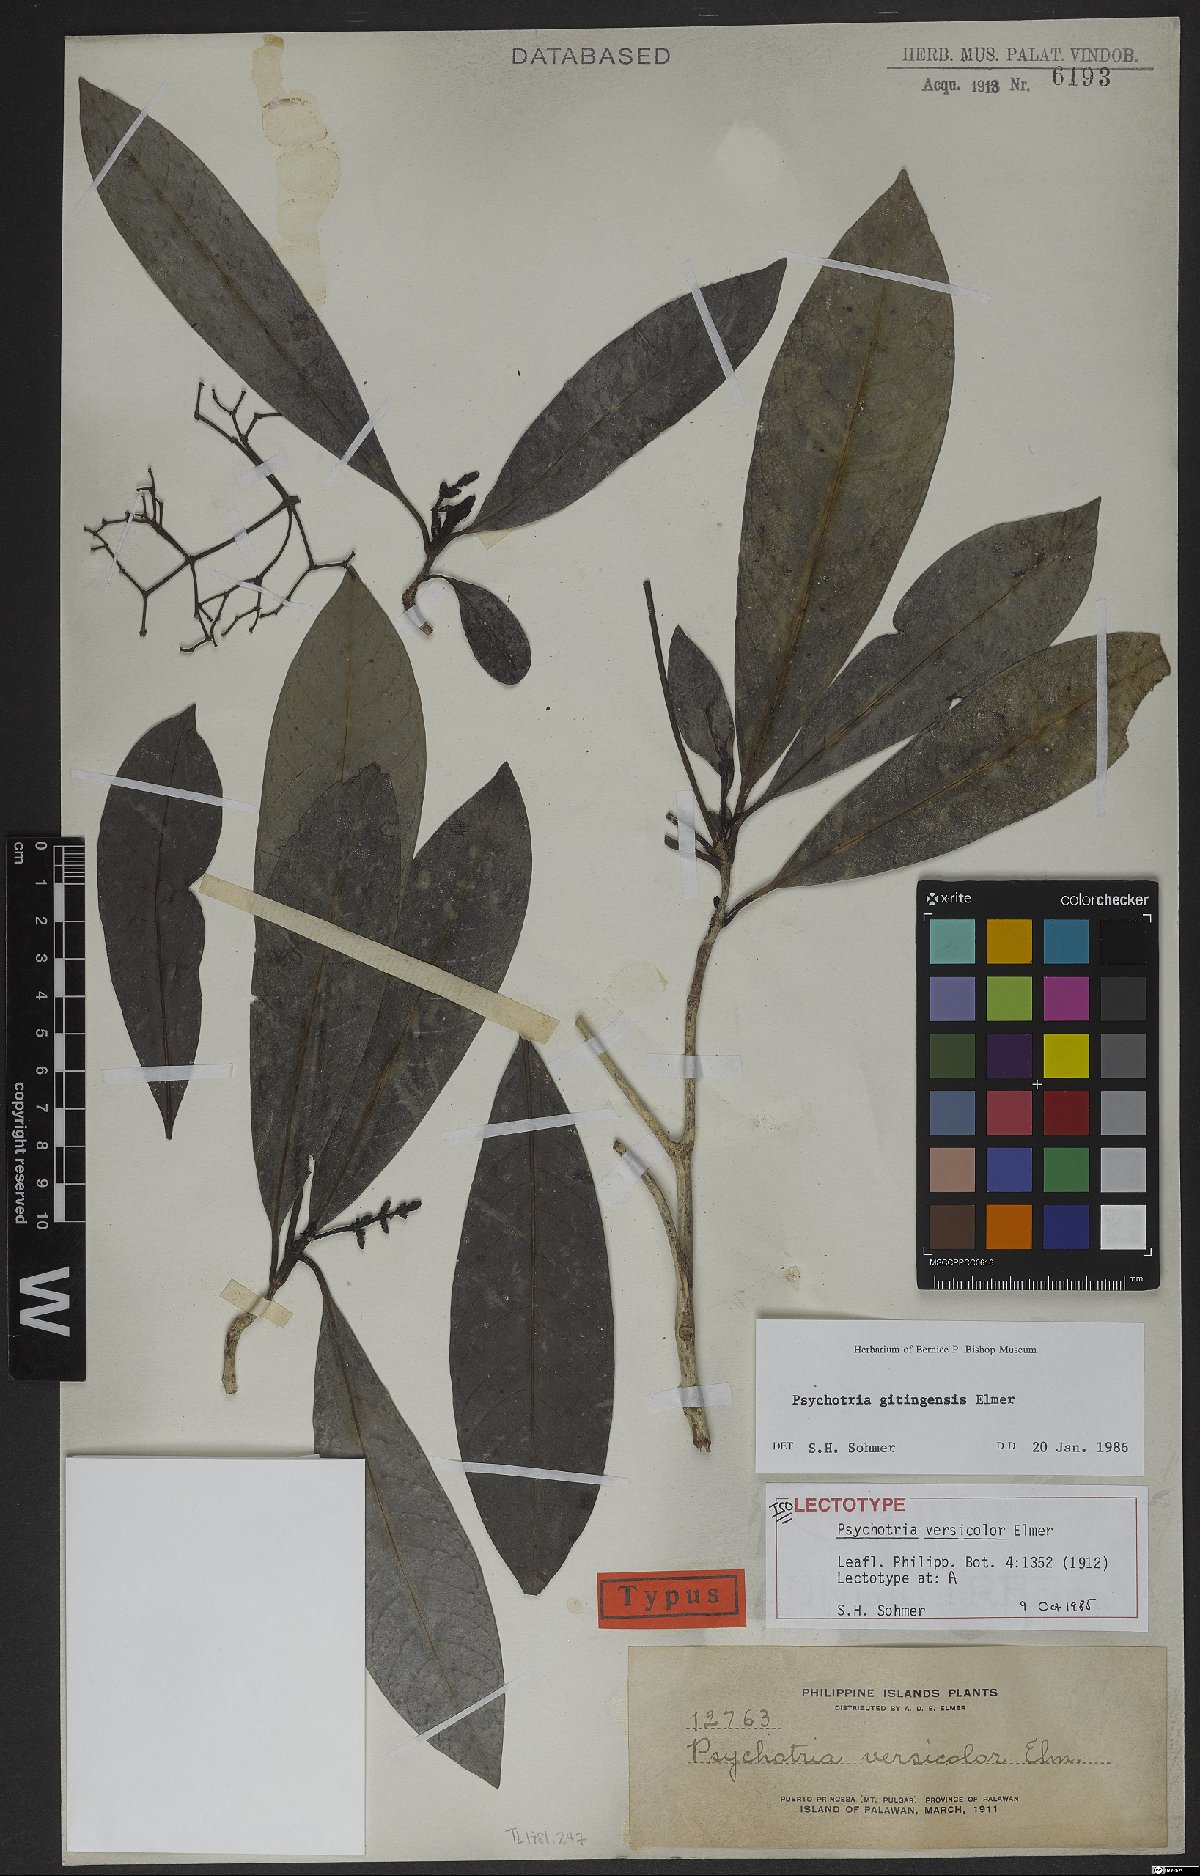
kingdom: Plantae
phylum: Tracheophyta
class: Magnoliopsida
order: Gentianales
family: Rubiaceae
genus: Psychotria
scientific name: Psychotria gitingensis
